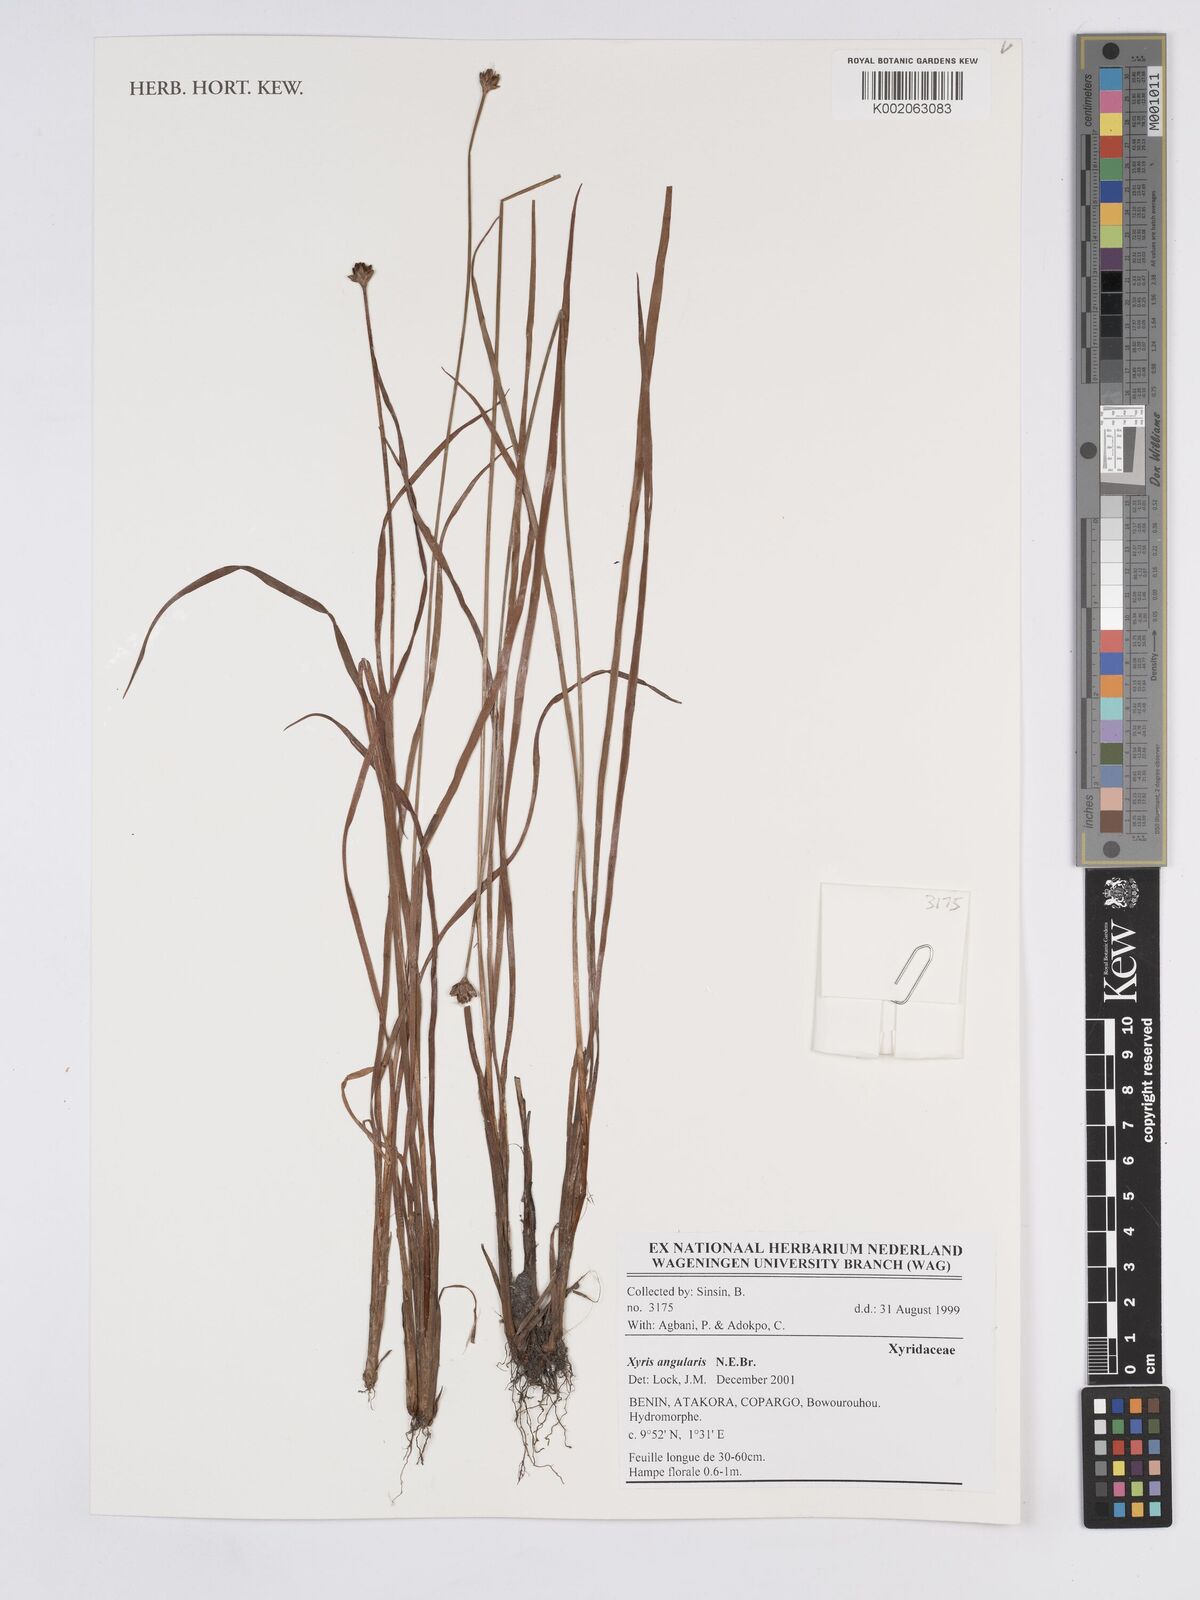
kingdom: Plantae
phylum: Tracheophyta
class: Liliopsida
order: Poales
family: Xyridaceae
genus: Xyris
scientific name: Xyris angularis
